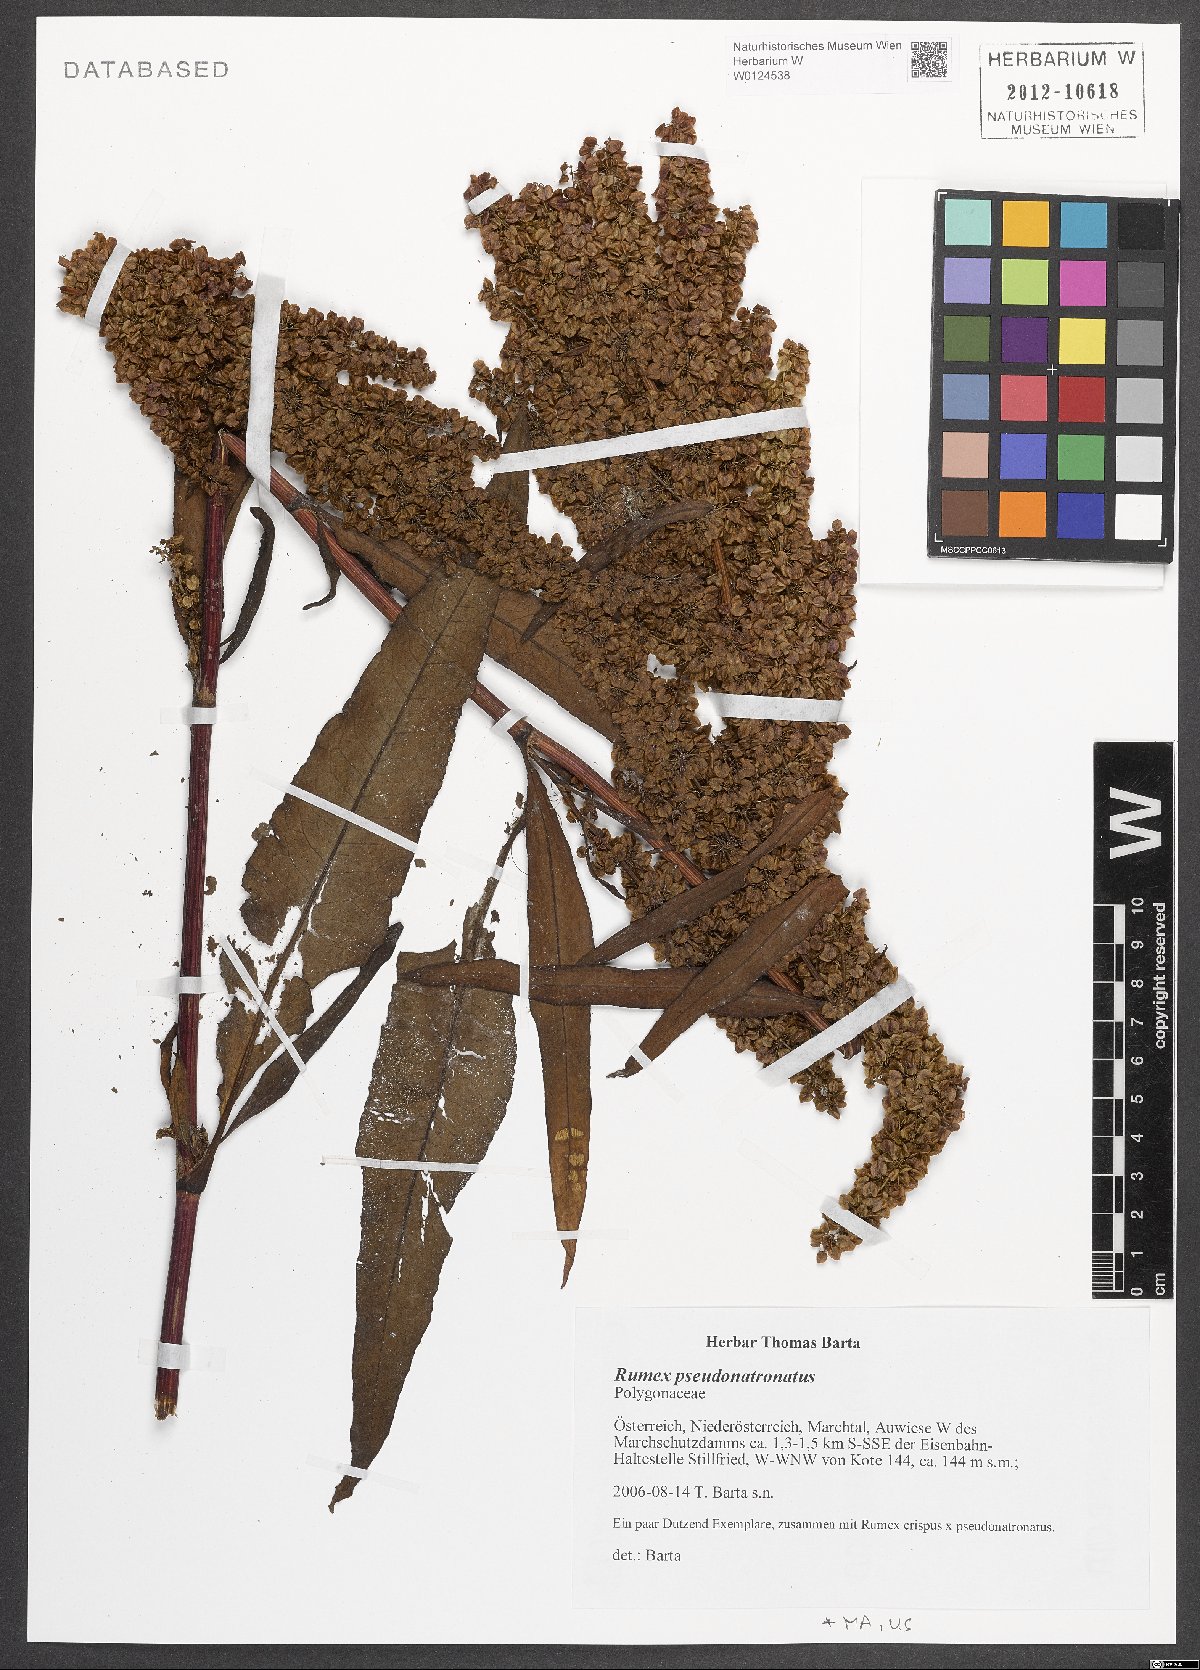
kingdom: Plantae
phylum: Tracheophyta
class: Magnoliopsida
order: Asterales
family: Asteraceae
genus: Gnaphalium
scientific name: Gnaphalium uliginosum
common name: Marsh cudweed
